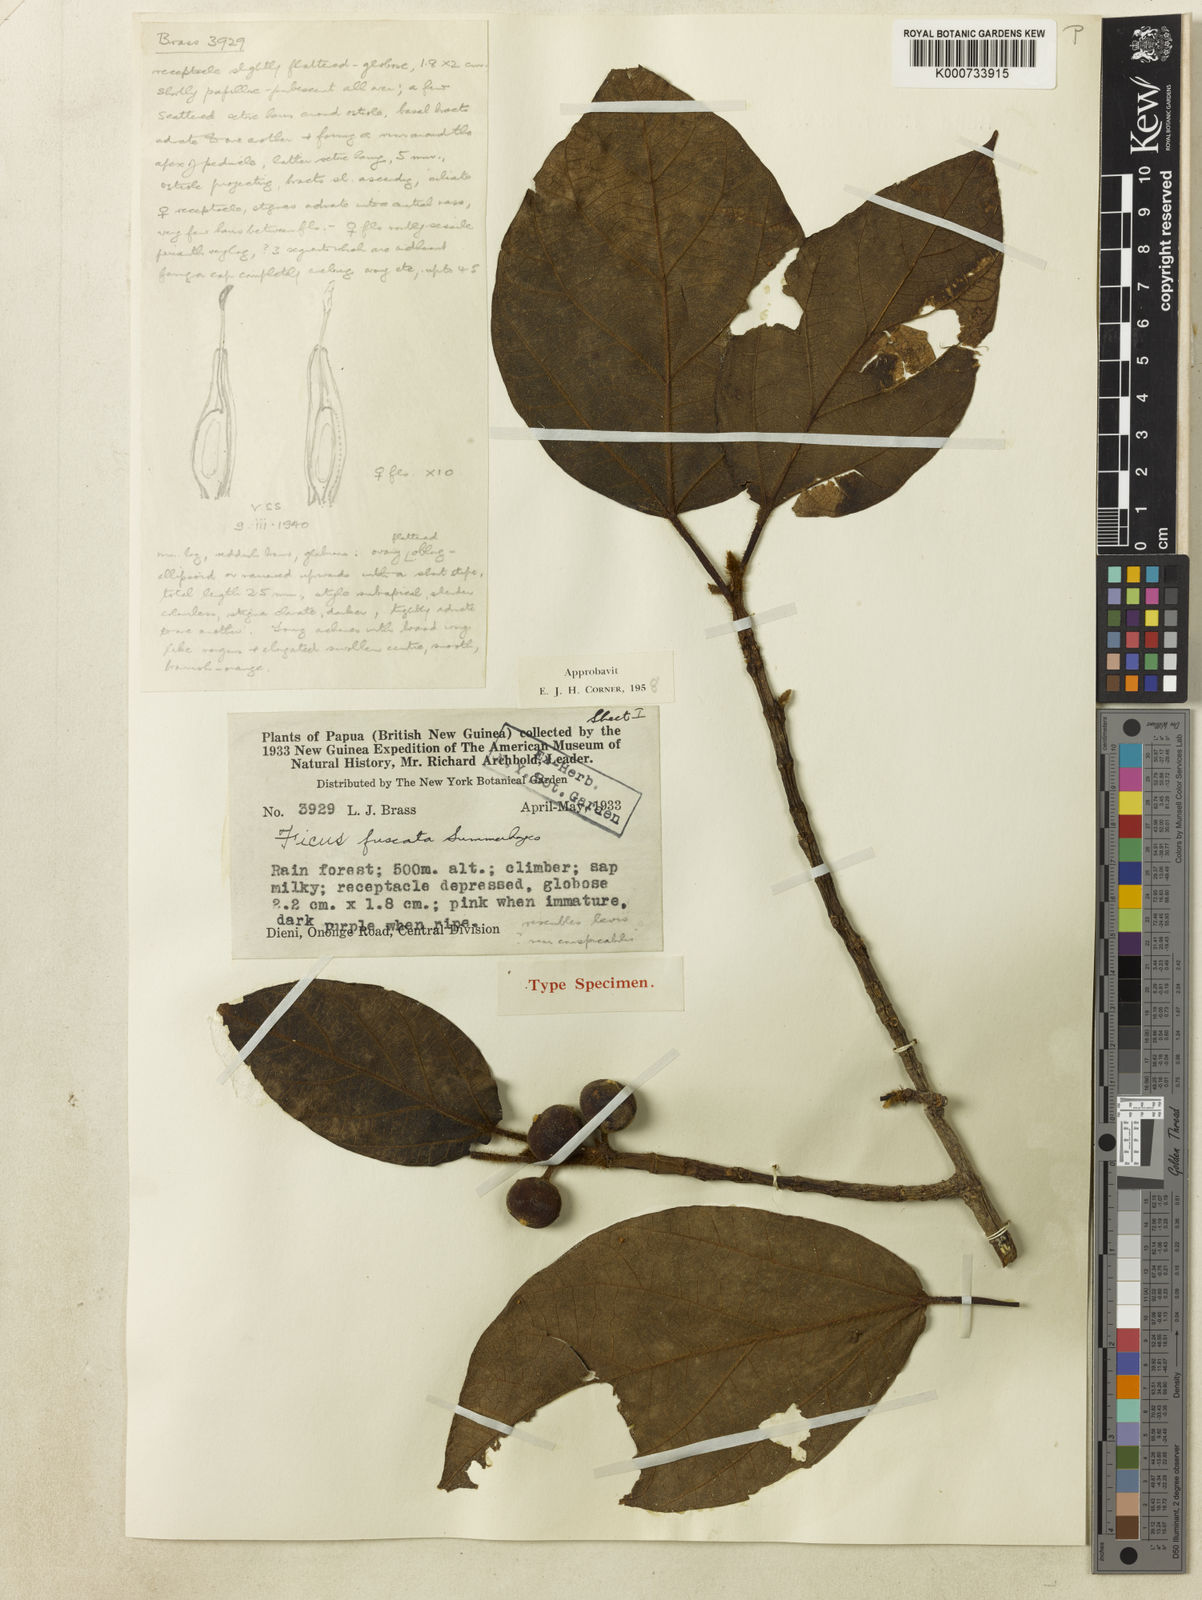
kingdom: Plantae
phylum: Tracheophyta
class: Magnoliopsida
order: Rosales
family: Moraceae
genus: Ficus
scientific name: Ficus fuscata
